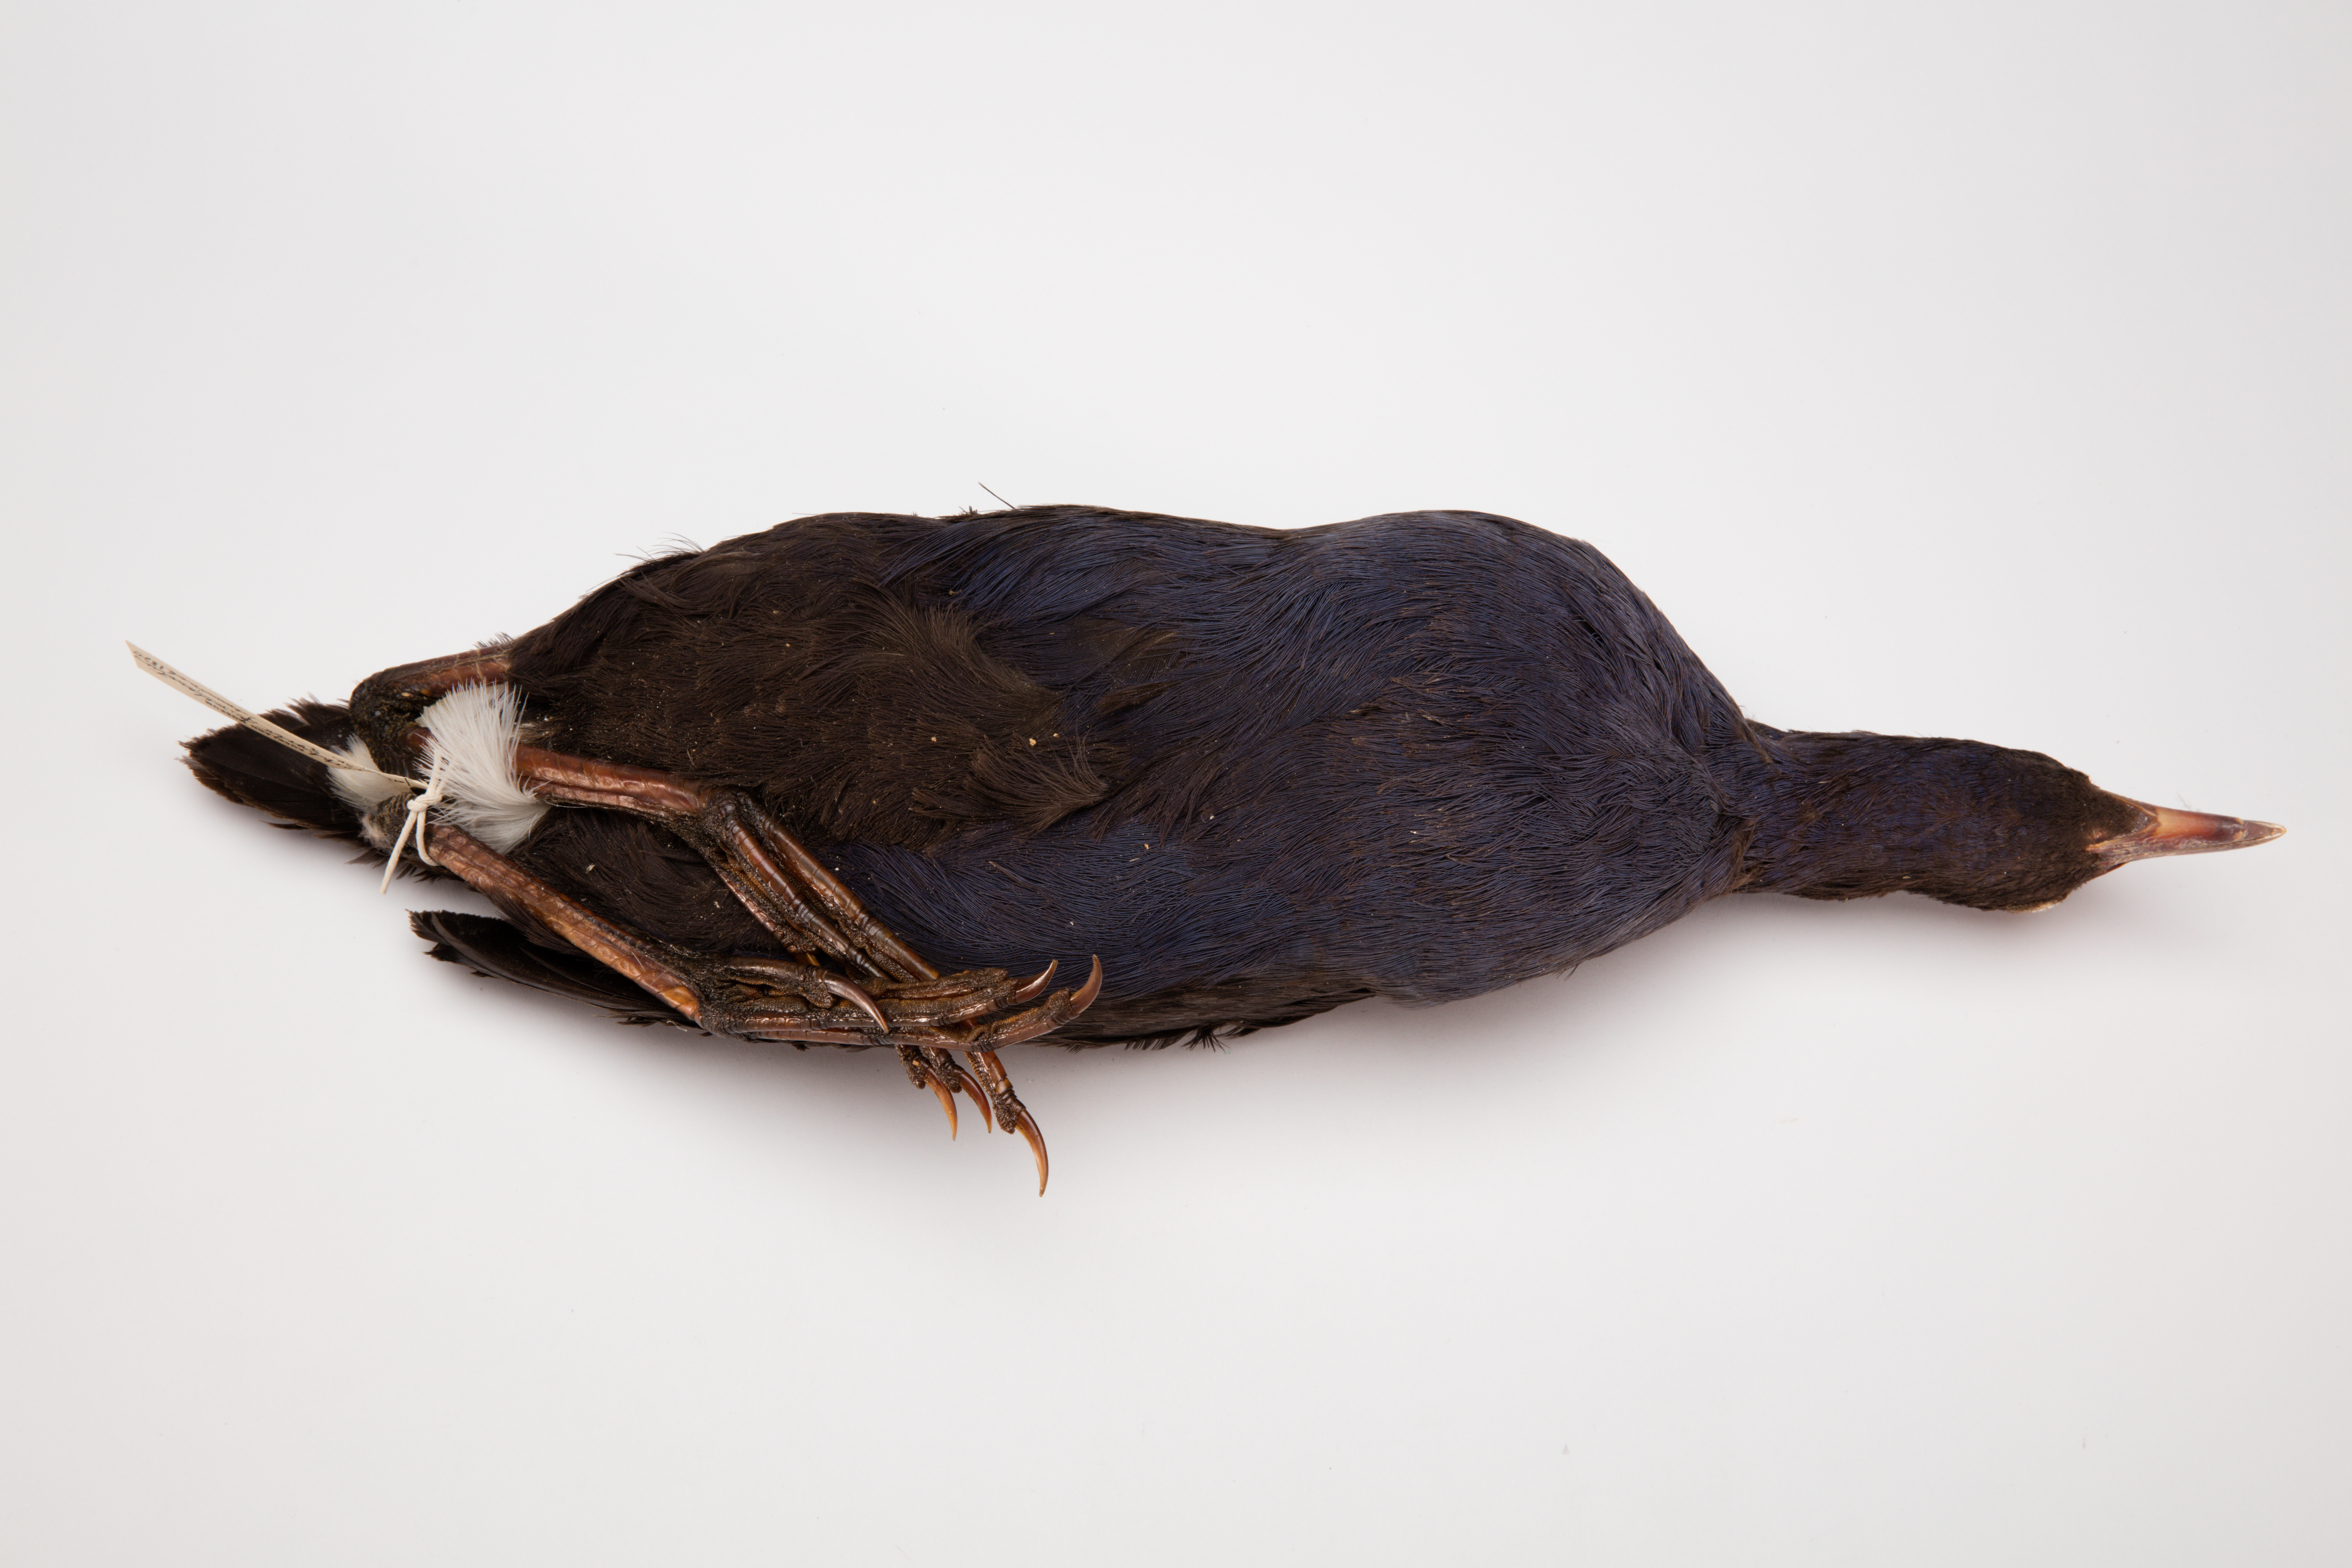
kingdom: Animalia
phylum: Chordata
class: Aves
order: Gruiformes
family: Rallidae
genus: Porphyrio
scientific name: Porphyrio melanotus
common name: Australasian swamphen
